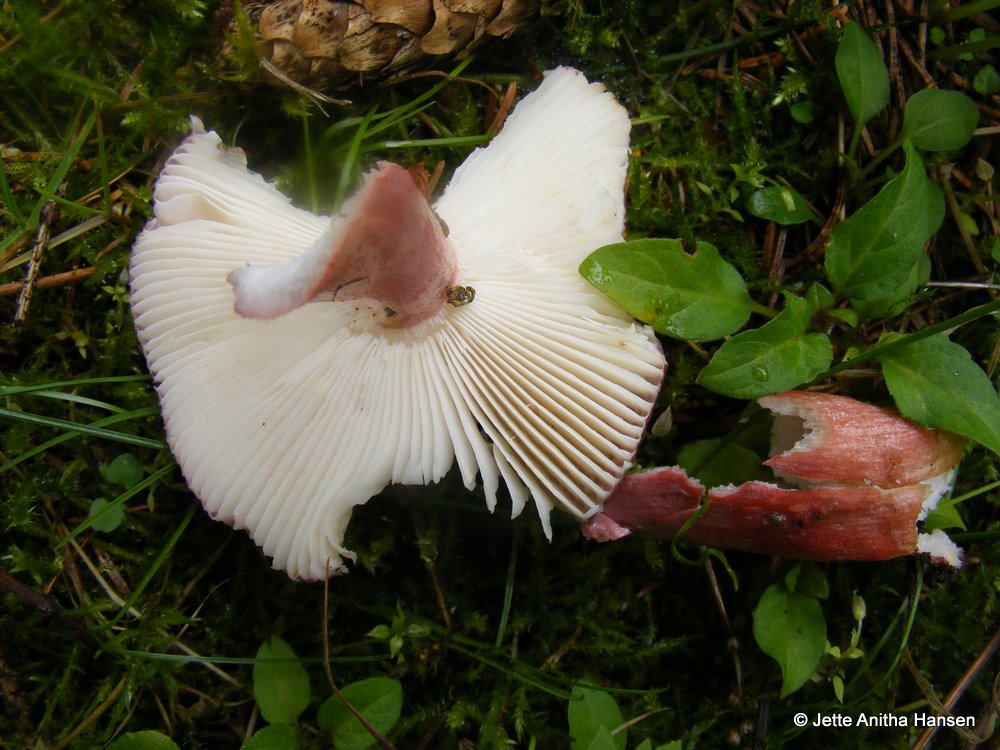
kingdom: Fungi
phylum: Basidiomycota
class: Agaricomycetes
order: Russulales
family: Russulaceae
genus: Russula
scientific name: Russula xerampelina
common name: hummer-skørhat
